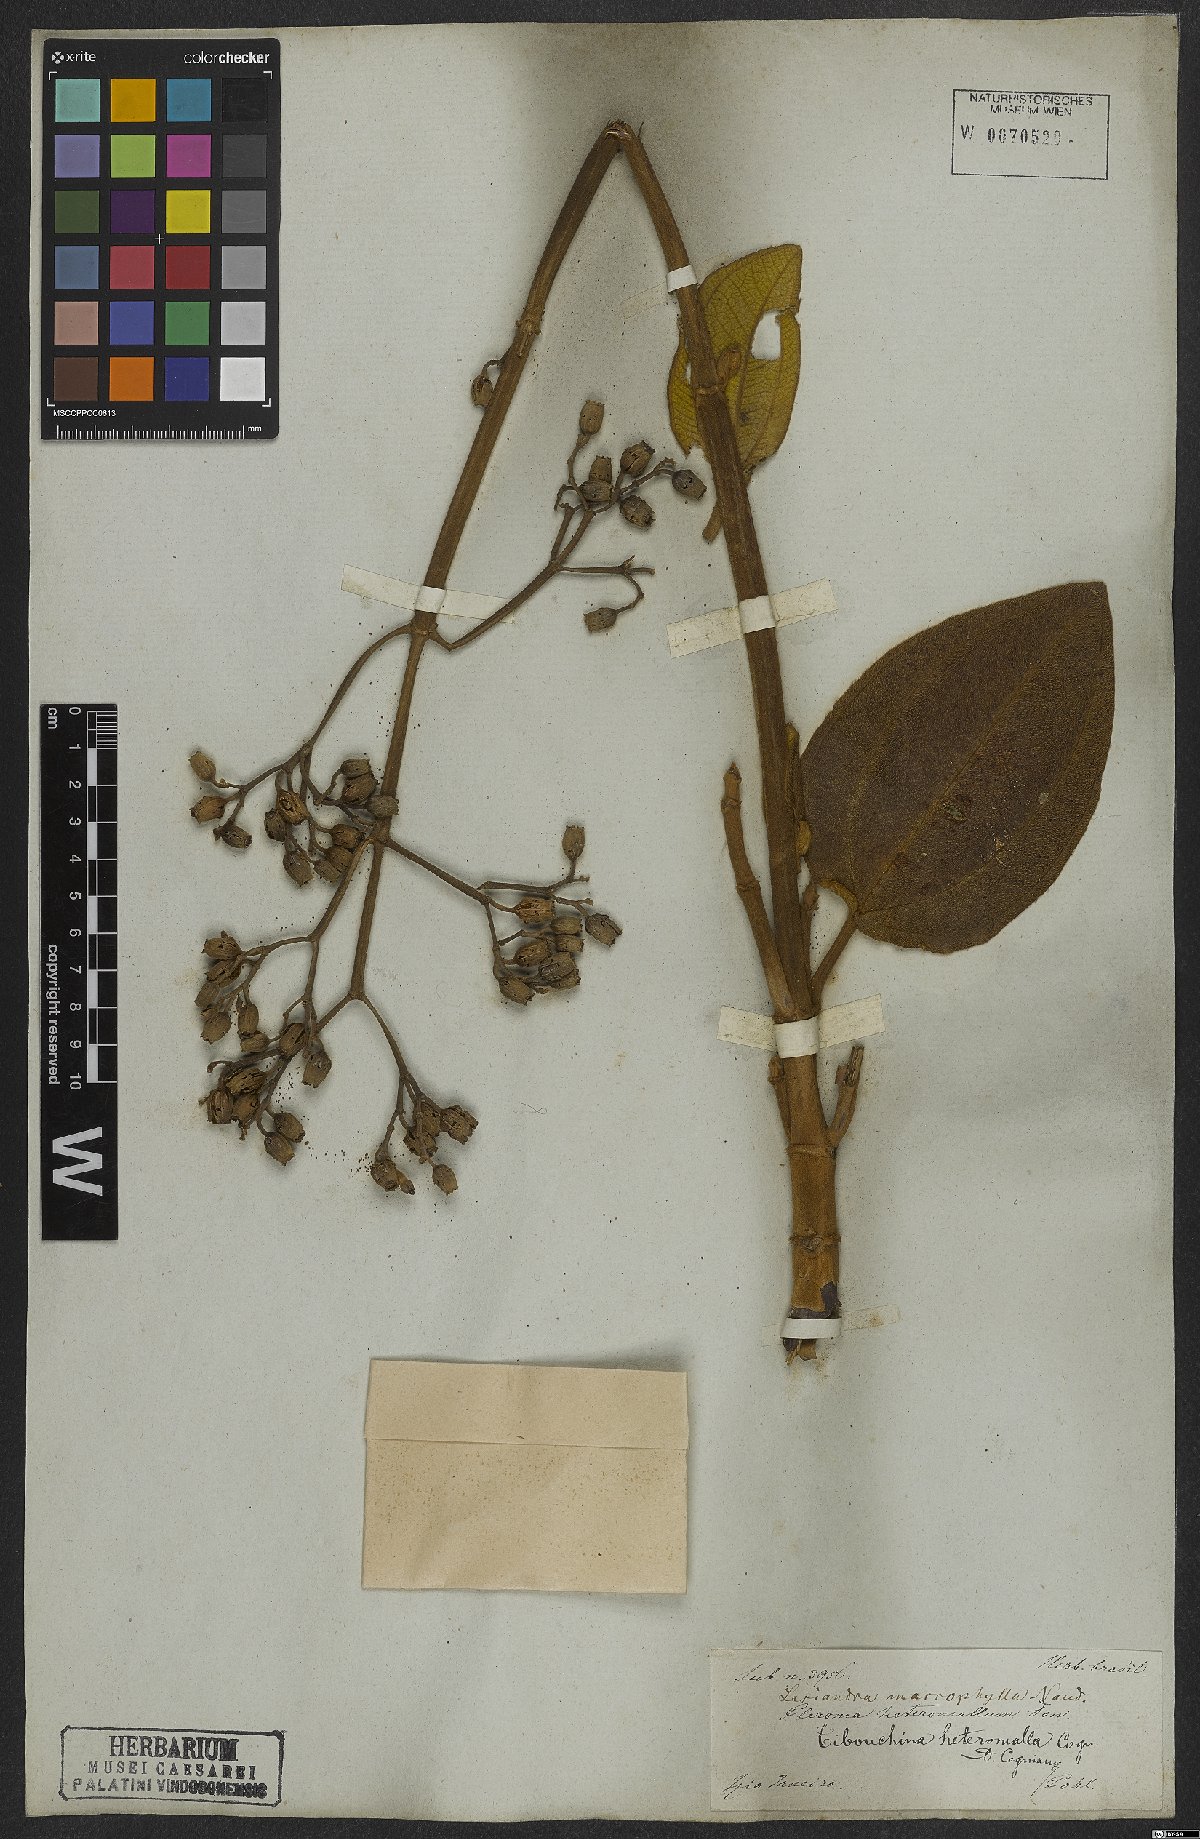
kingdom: Plantae
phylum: Tracheophyta
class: Magnoliopsida
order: Myrtales
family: Melastomataceae
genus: Pleroma
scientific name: Pleroma heteromallum
